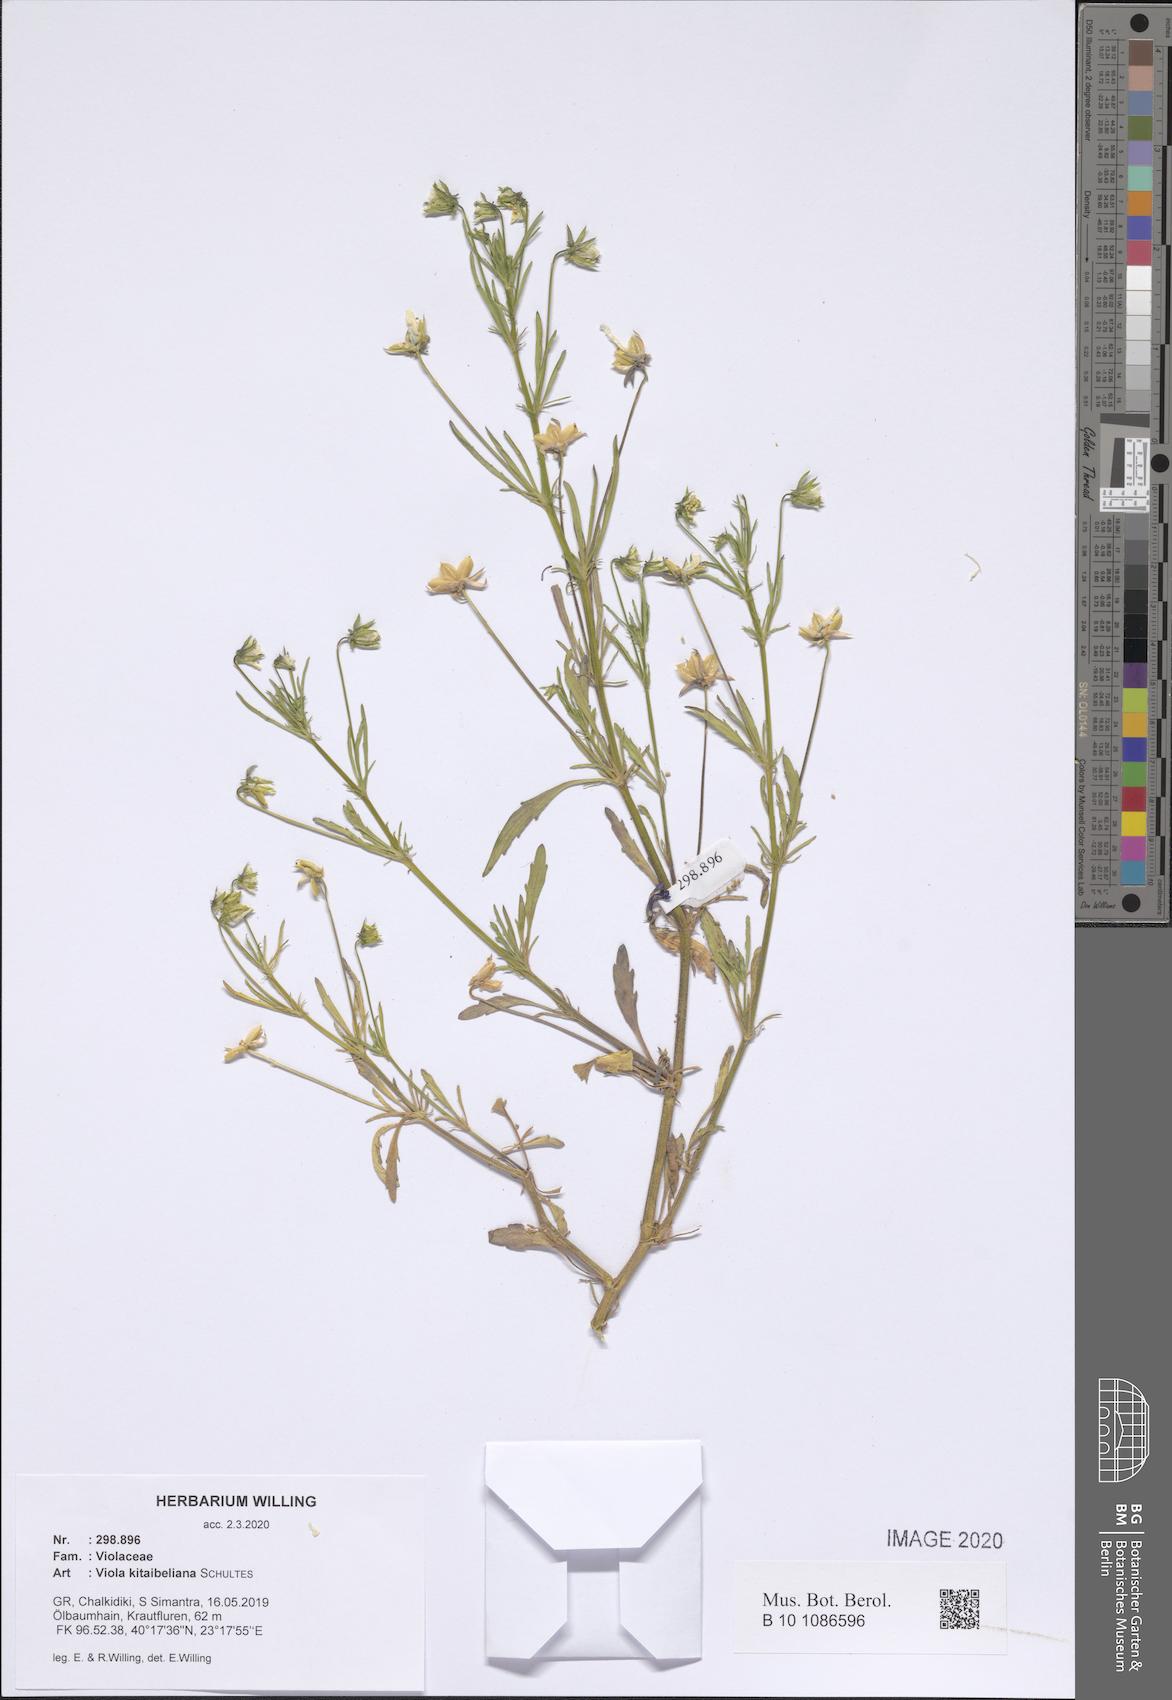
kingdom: Plantae
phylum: Tracheophyta
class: Magnoliopsida
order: Malpighiales
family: Violaceae
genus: Viola
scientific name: Viola kitaibeliana
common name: Dwarf pansy
